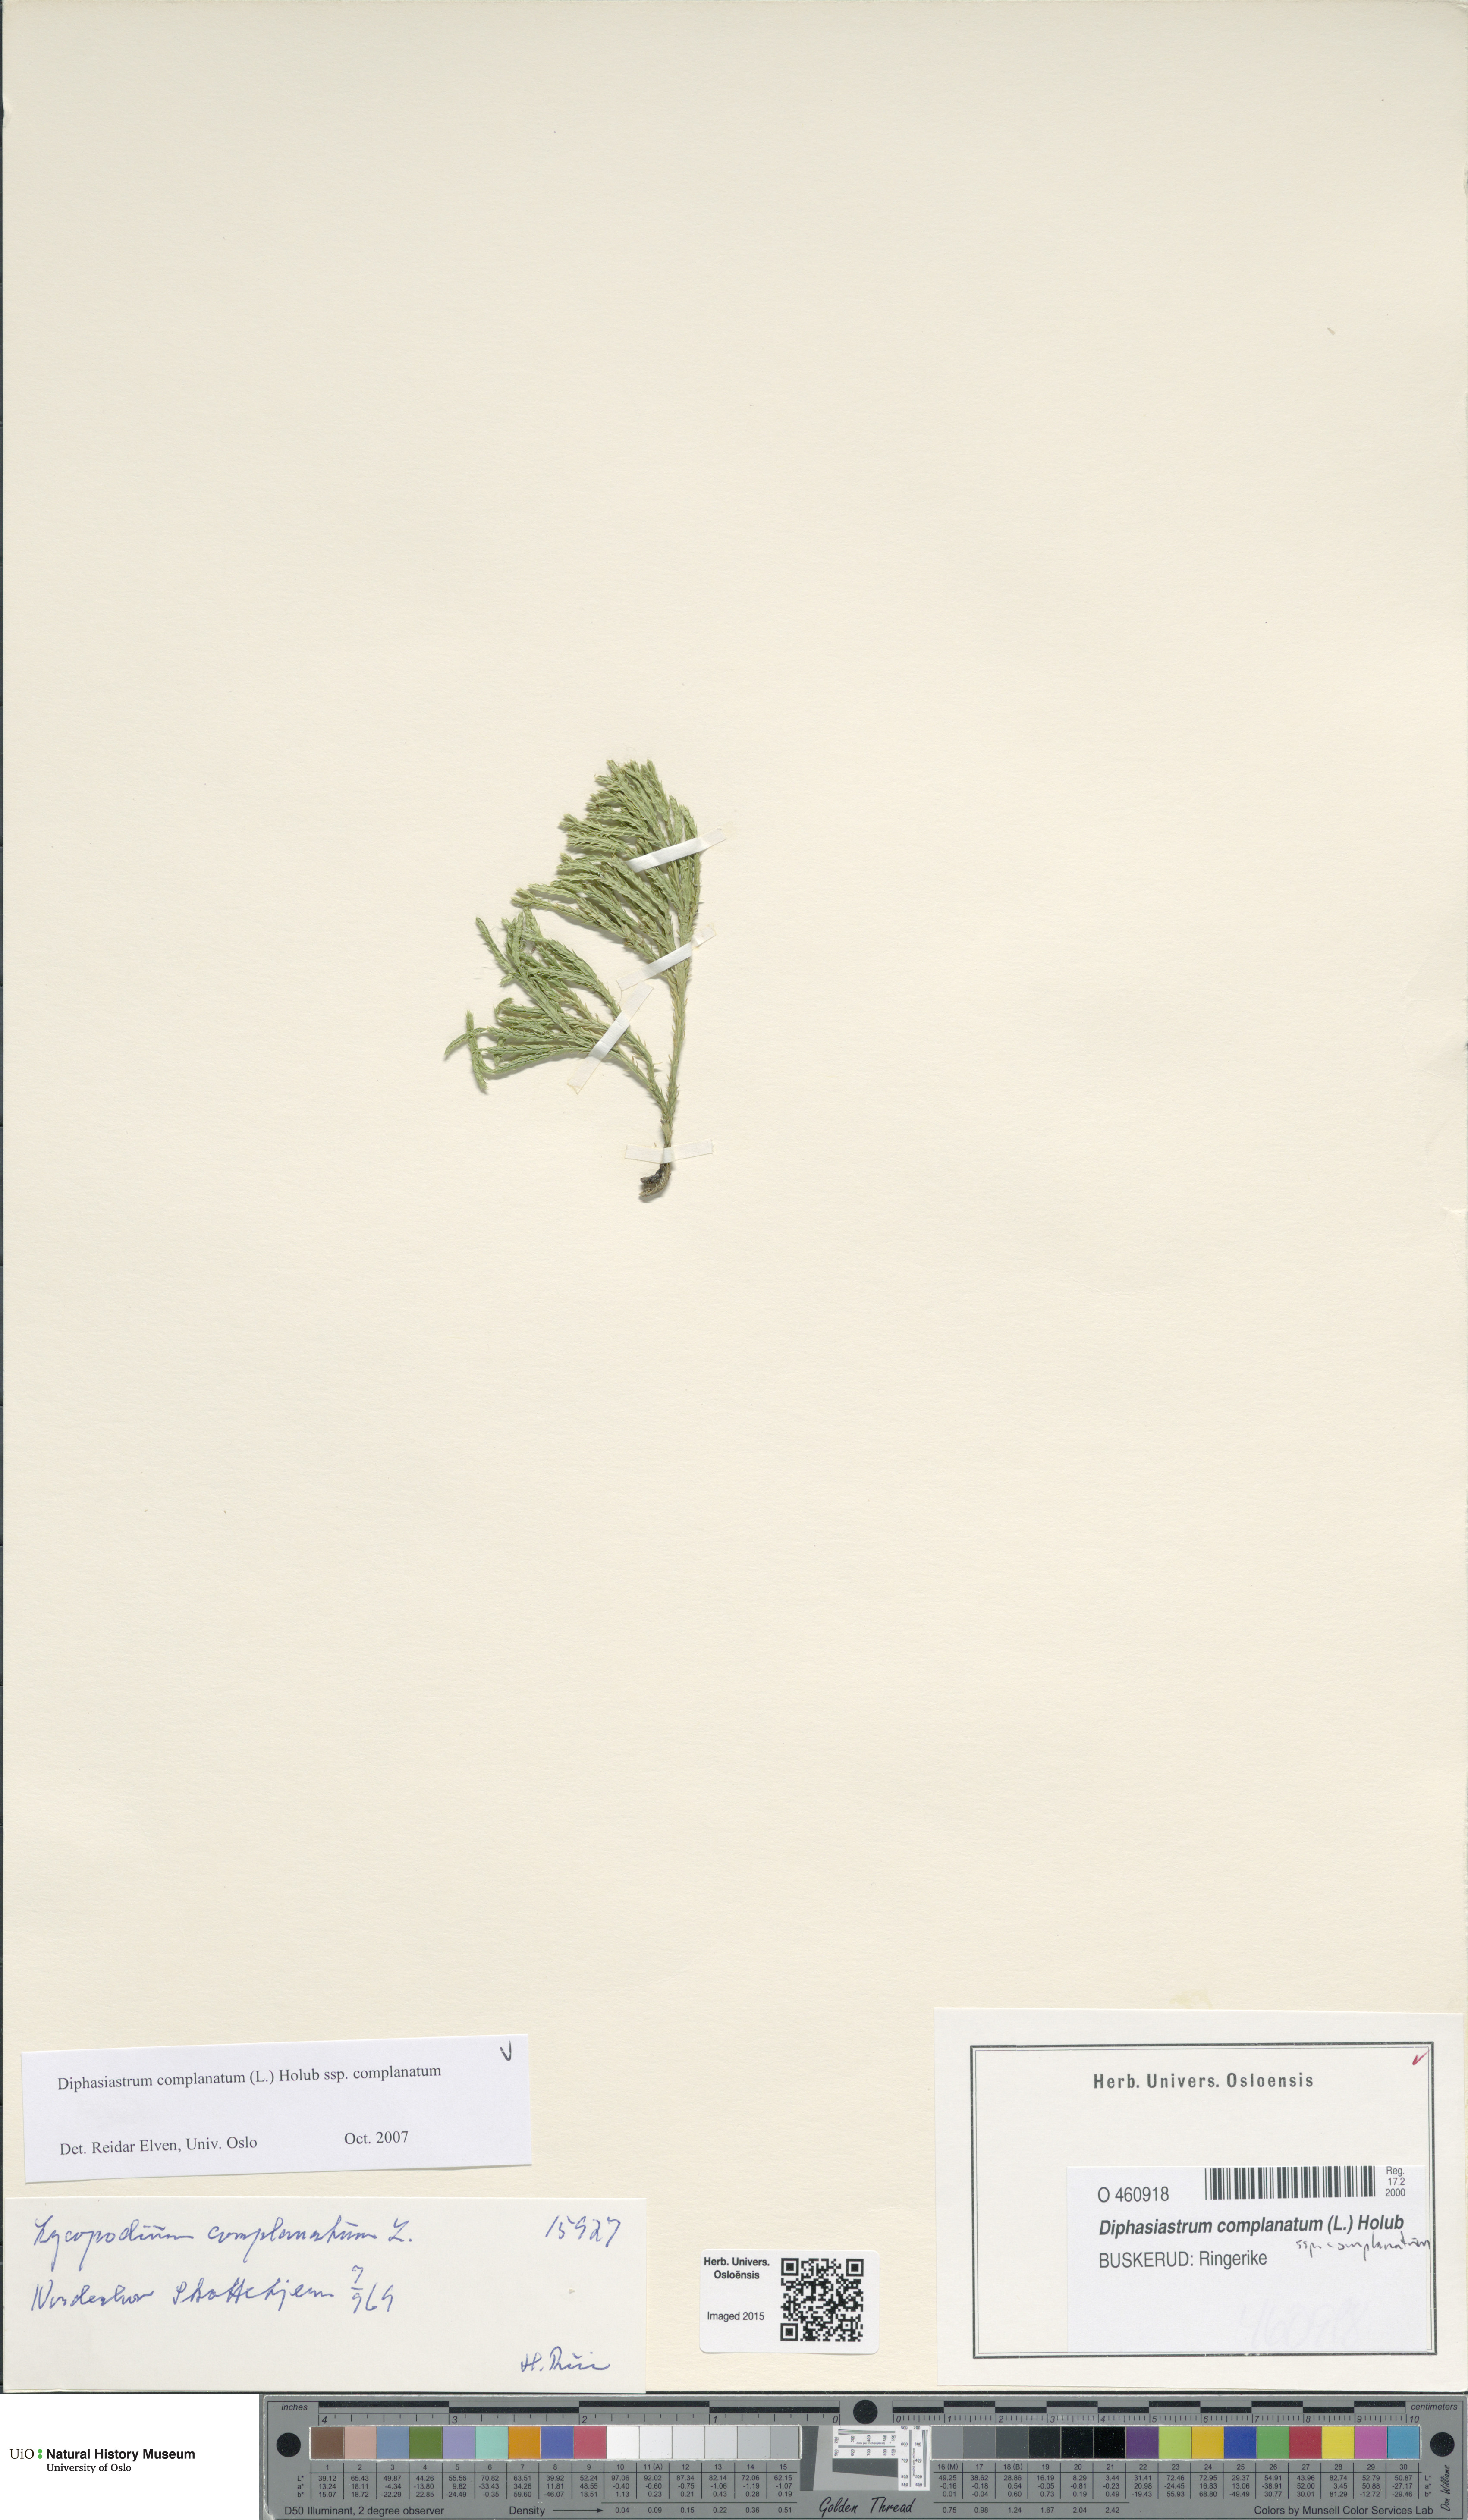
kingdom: Plantae
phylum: Tracheophyta
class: Lycopodiopsida
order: Lycopodiales
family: Lycopodiaceae
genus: Diphasiastrum
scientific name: Diphasiastrum complanatum
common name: Northern running-pine
